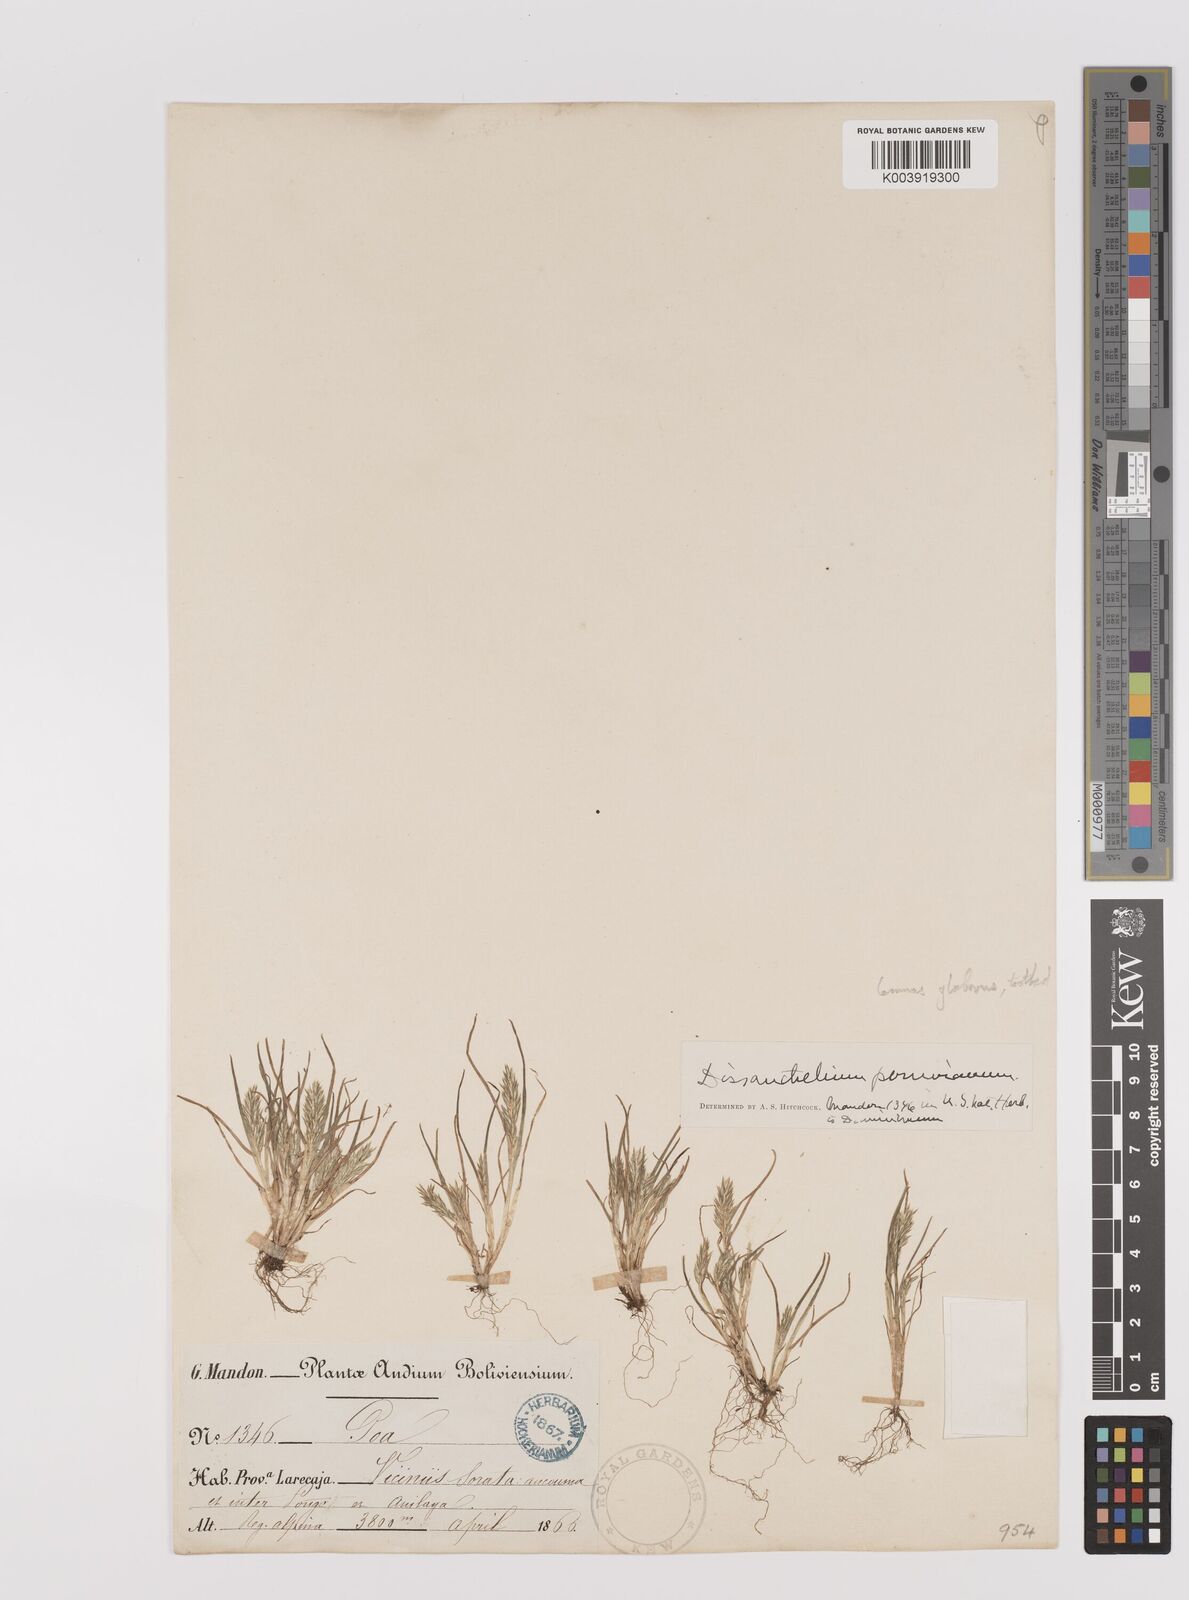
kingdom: Plantae
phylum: Tracheophyta
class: Liliopsida
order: Poales
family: Poaceae
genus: Poa
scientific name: Poa macusaniensis
